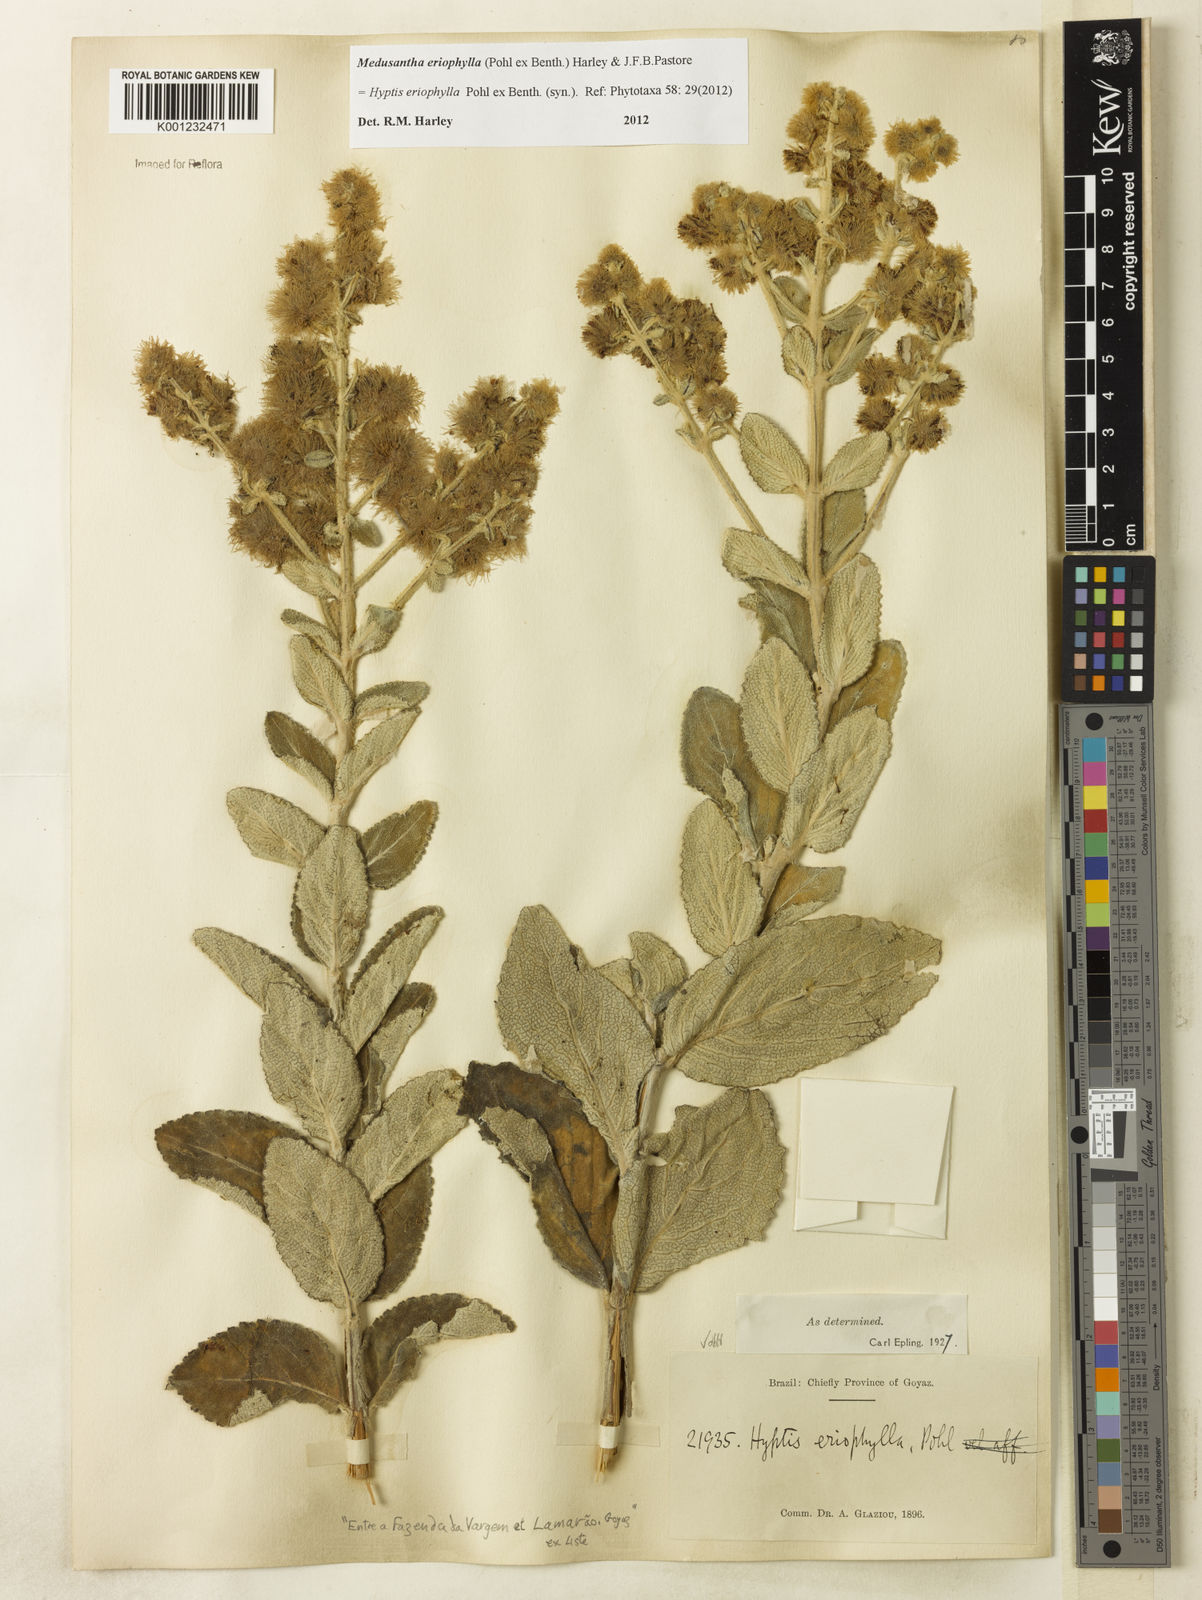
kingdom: Plantae
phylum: Tracheophyta
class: Magnoliopsida
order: Lamiales
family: Lamiaceae
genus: Medusantha
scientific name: Medusantha eriophylla
